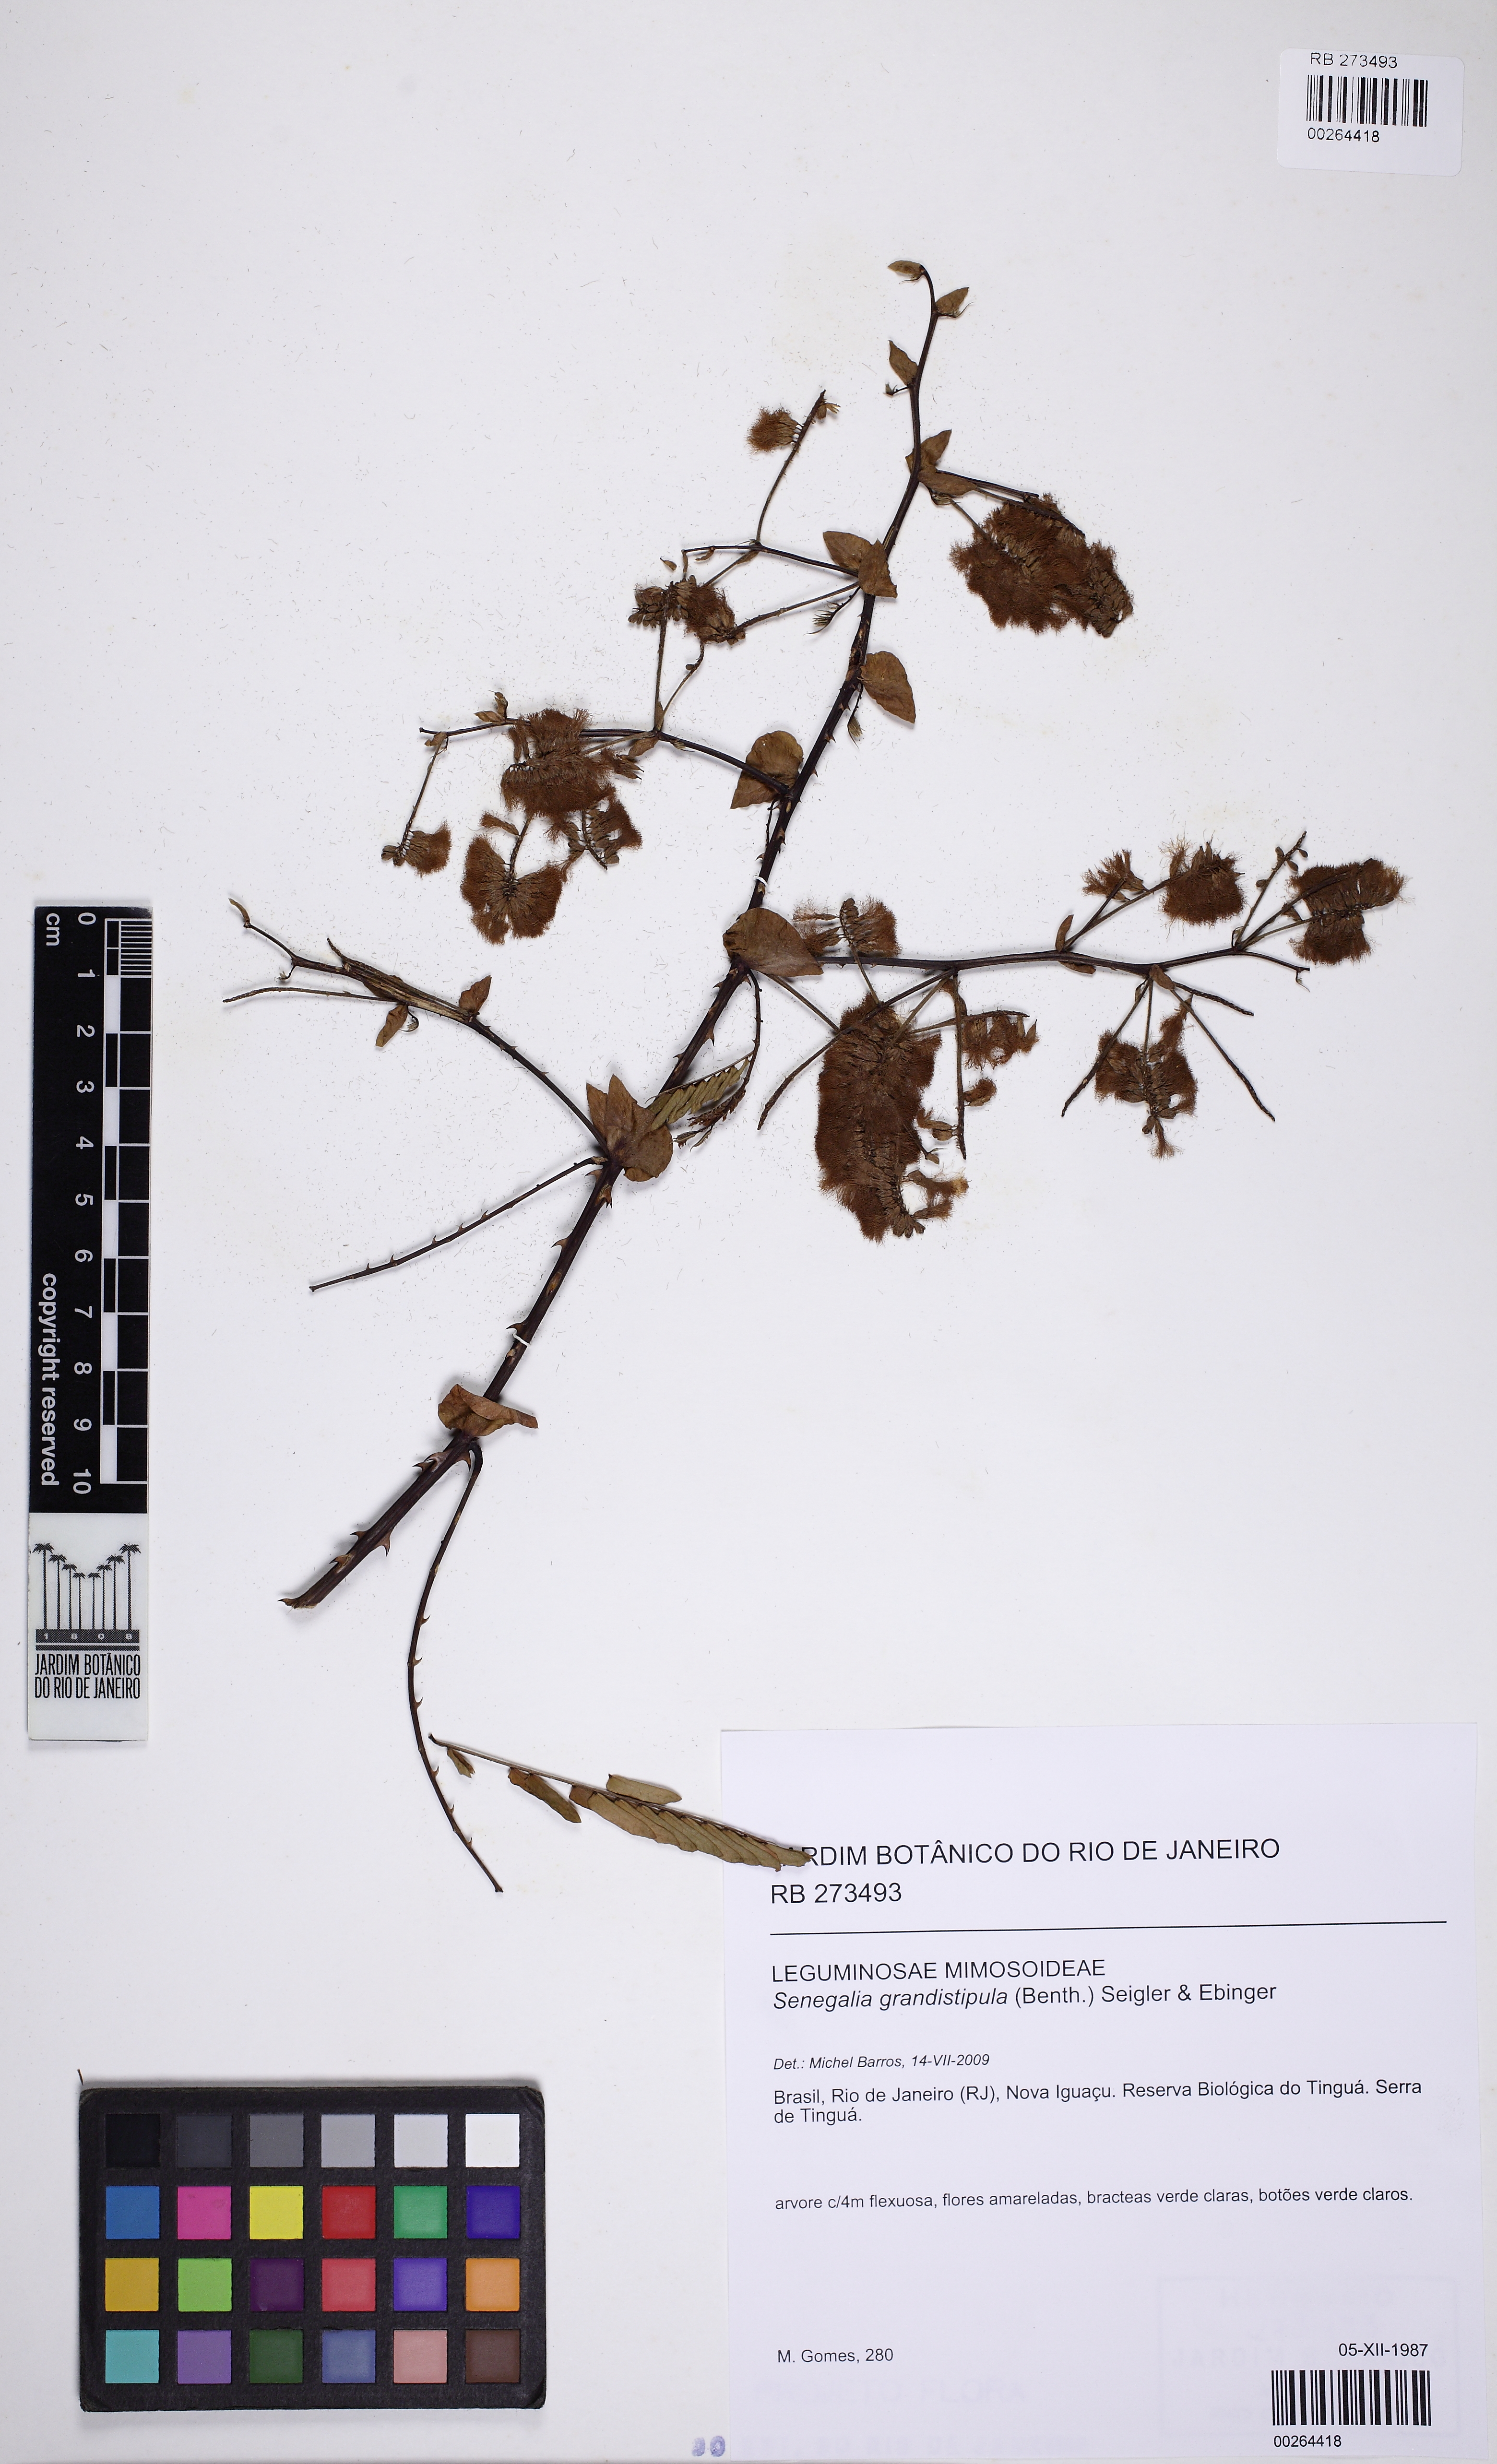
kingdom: Plantae
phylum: Tracheophyta
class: Magnoliopsida
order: Fabales
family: Fabaceae
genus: Senegalia
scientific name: Senegalia grandistipula
